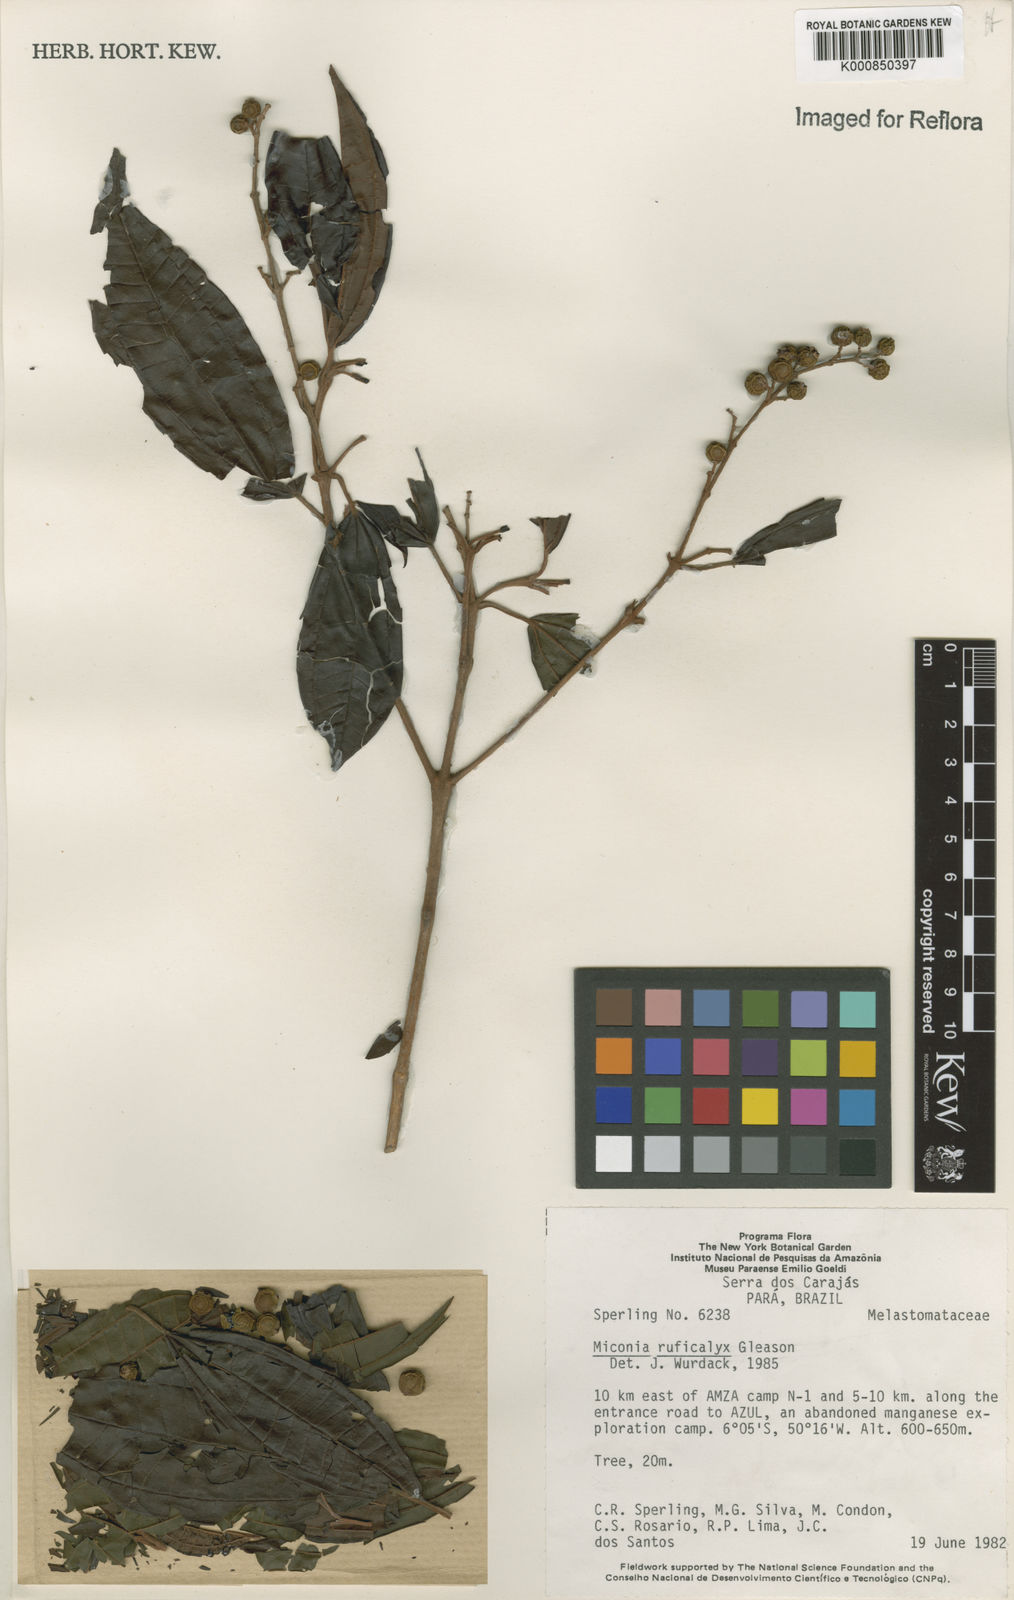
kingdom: Plantae
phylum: Tracheophyta
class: Magnoliopsida
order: Myrtales
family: Melastomataceae
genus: Miconia
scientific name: Miconia ruficalyx
